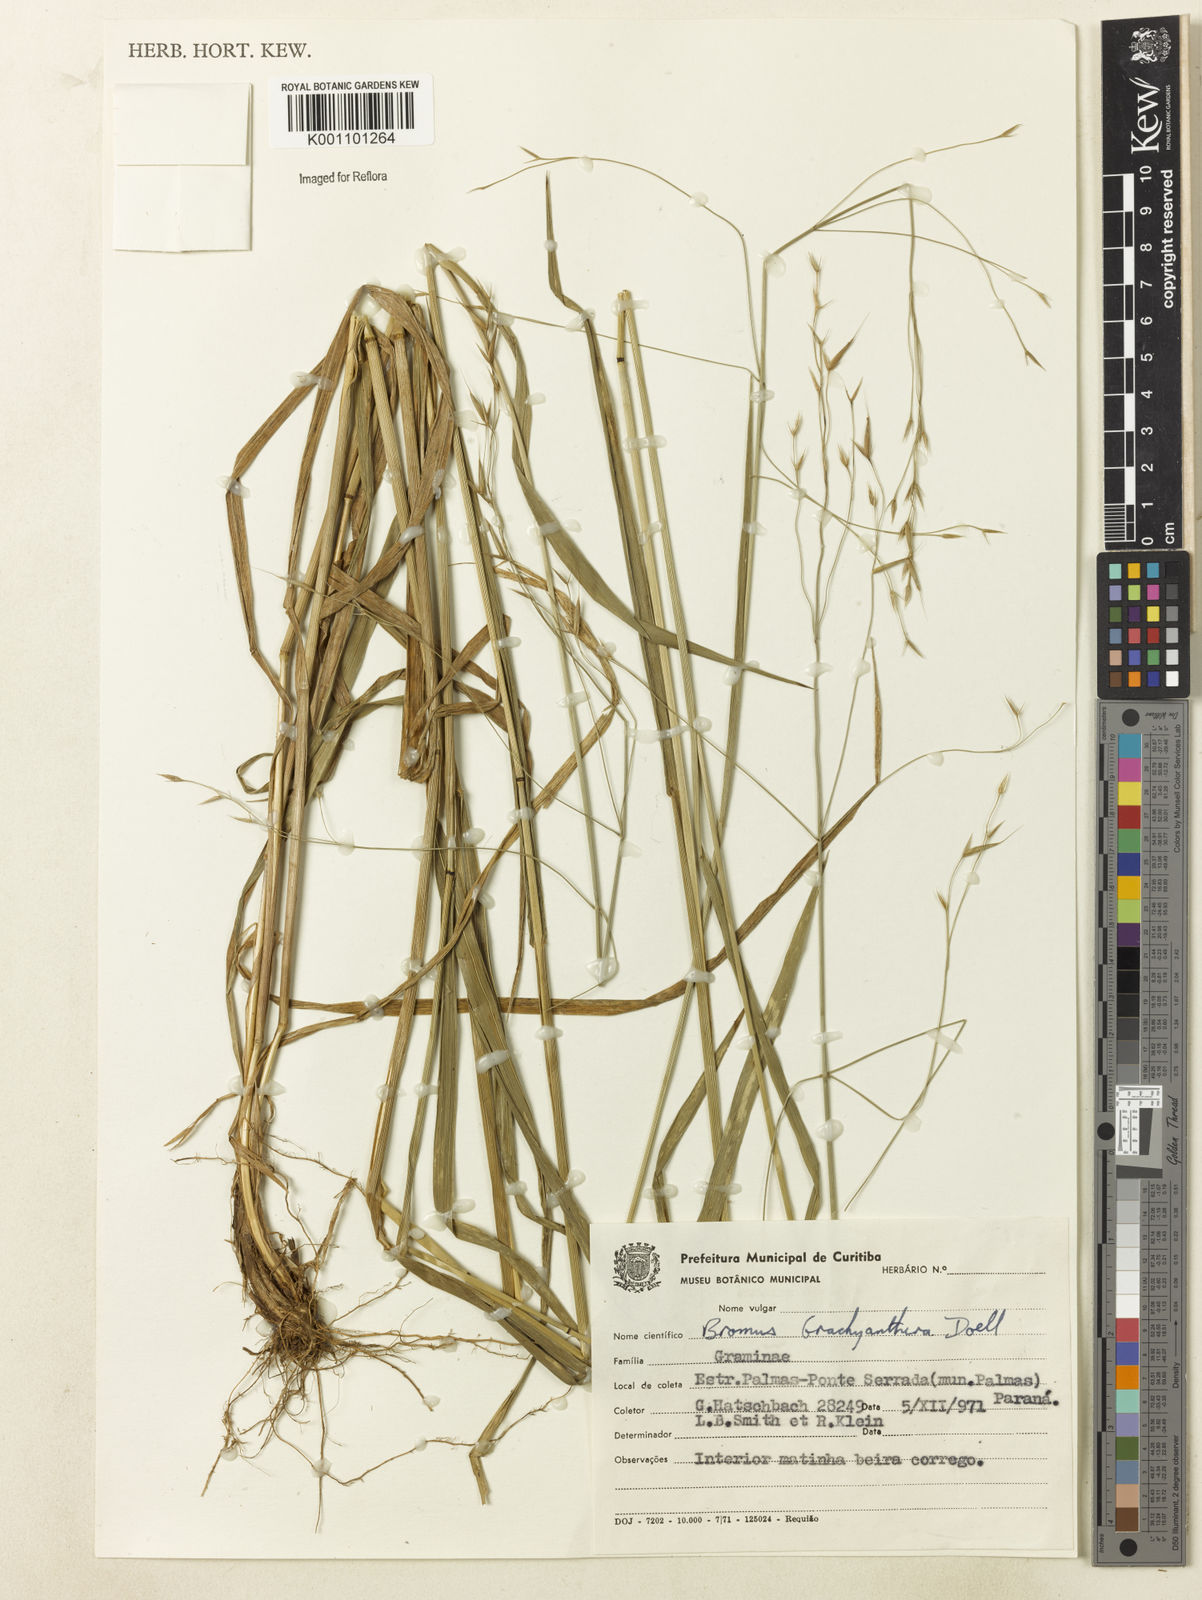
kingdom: Plantae
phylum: Tracheophyta
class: Liliopsida
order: Poales
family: Poaceae
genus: Bromus
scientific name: Bromus
